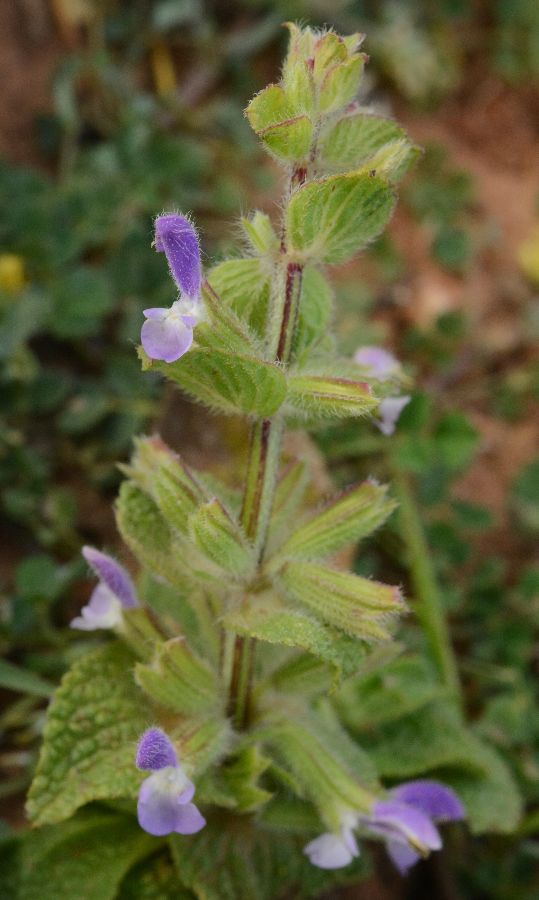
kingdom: Plantae
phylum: Tracheophyta
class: Magnoliopsida
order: Lamiales
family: Lamiaceae
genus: Salvia
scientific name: Salvia viridis
